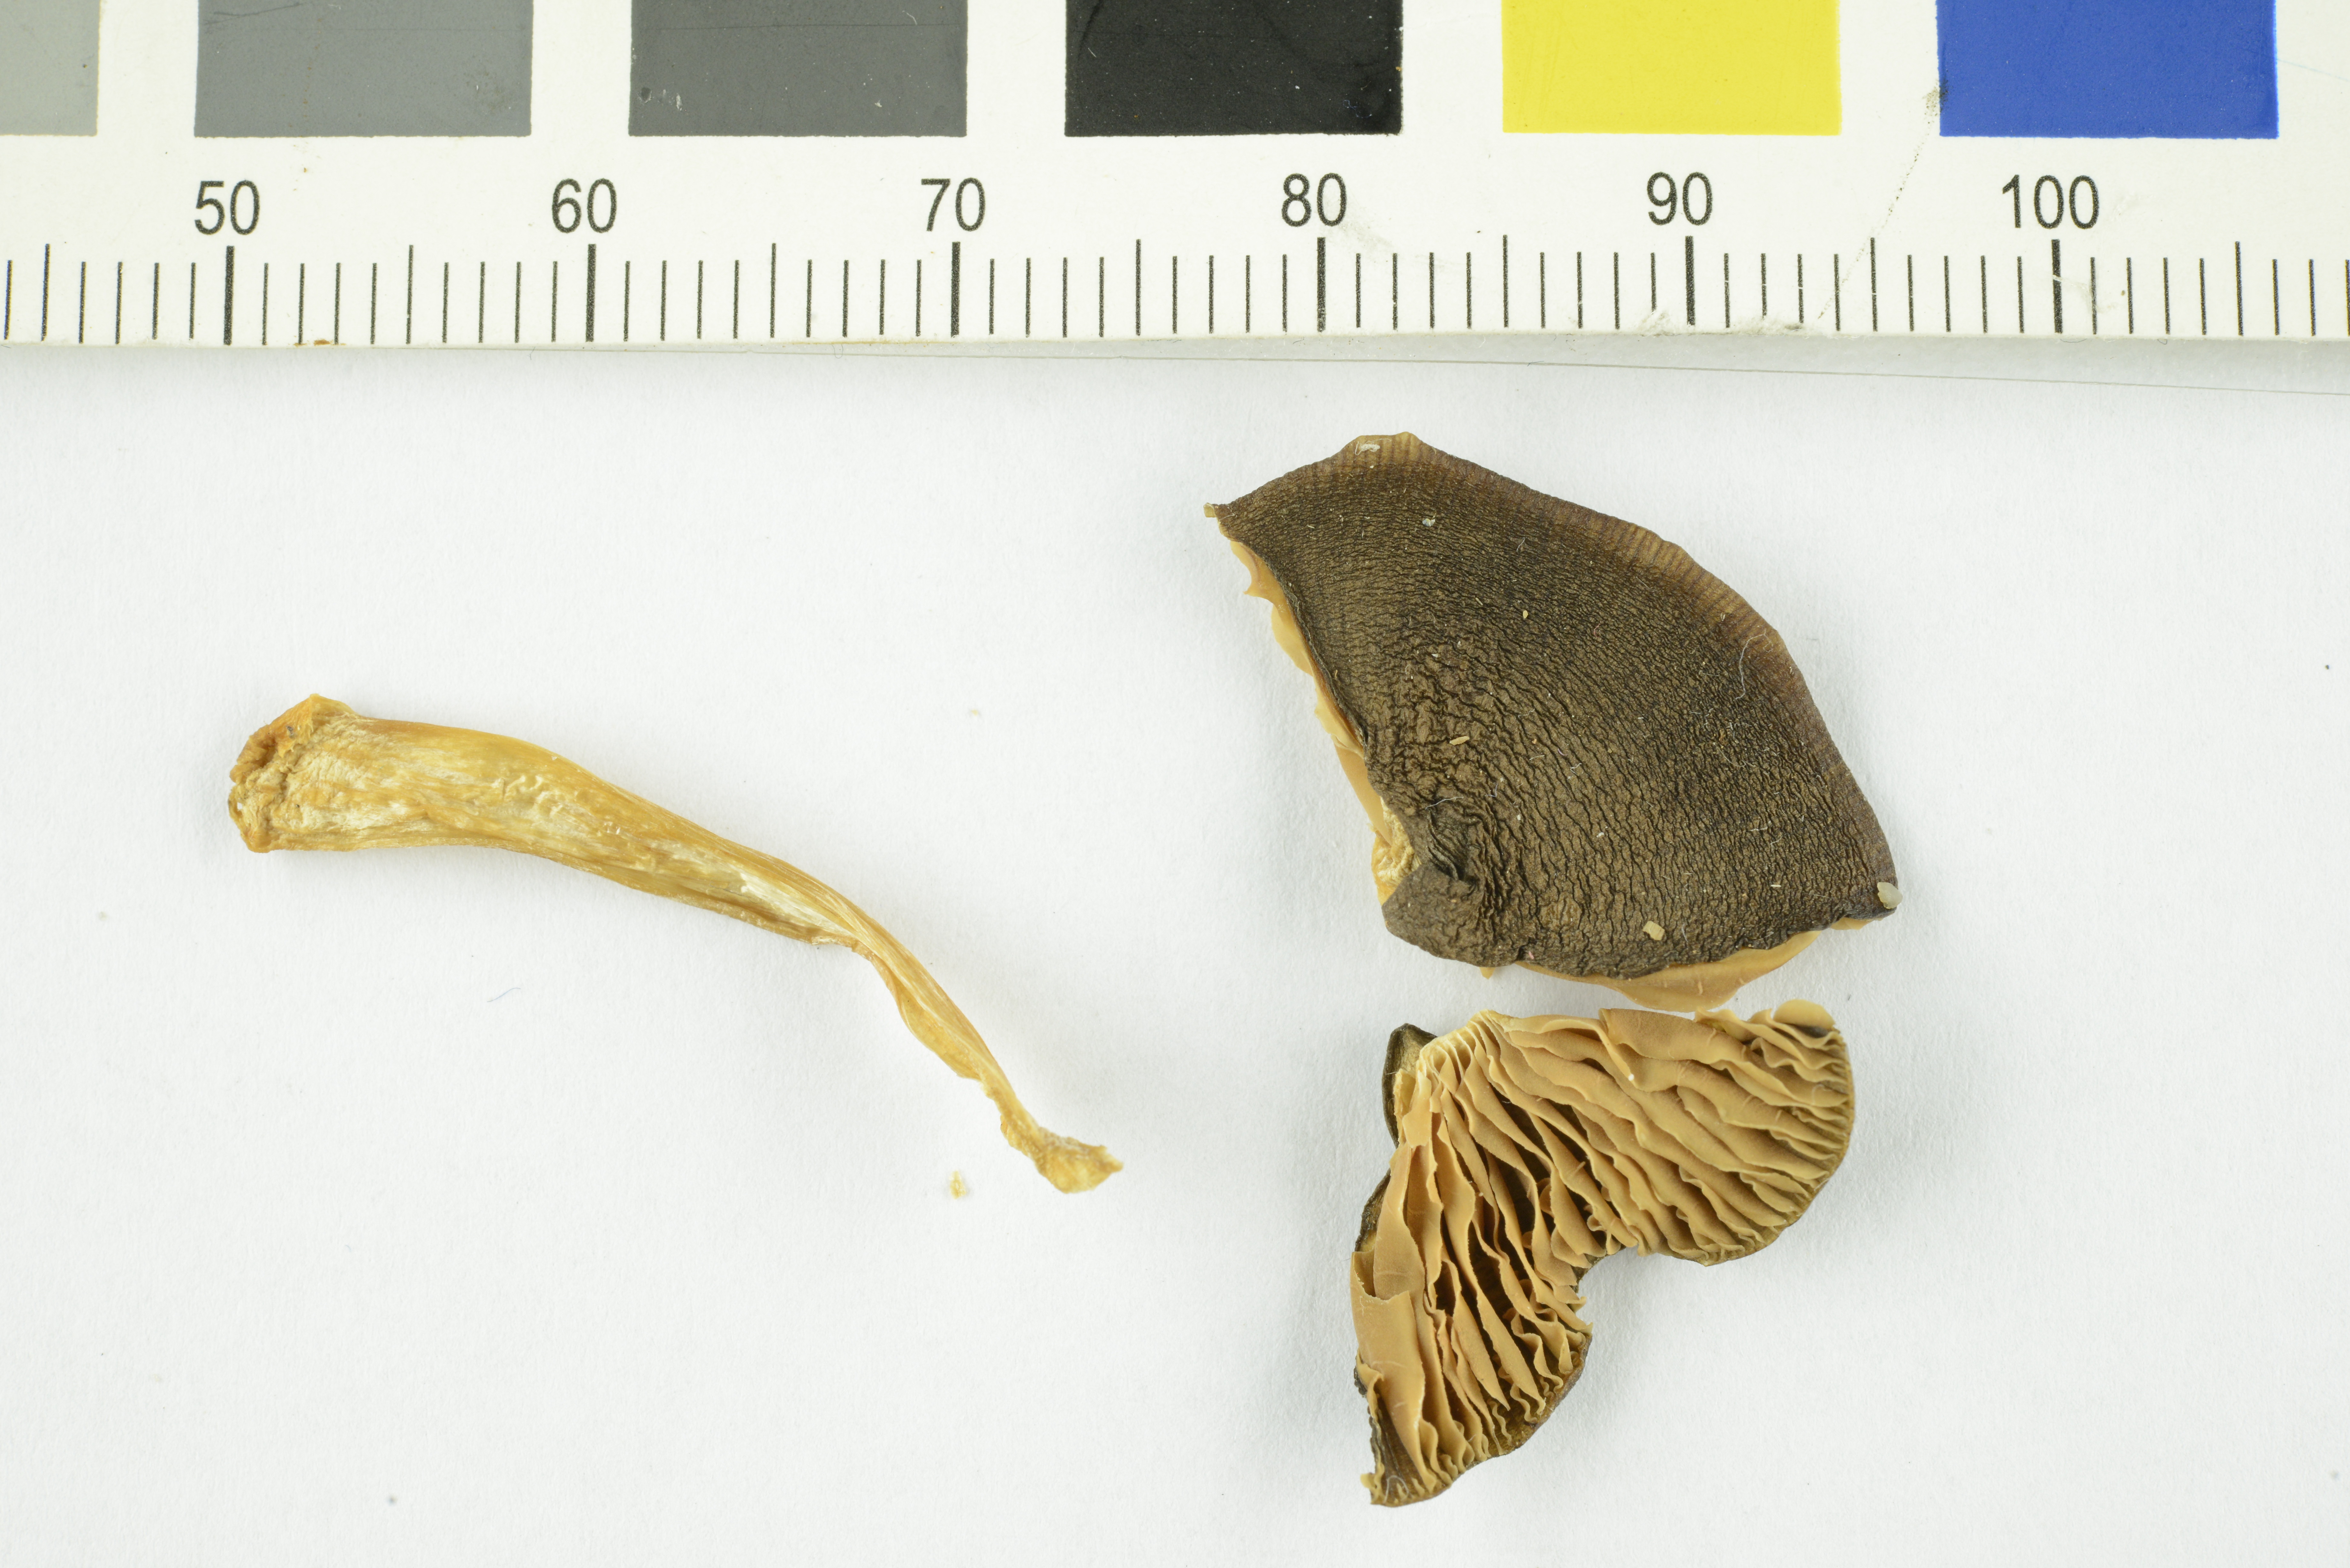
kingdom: Fungi
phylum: Basidiomycota
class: Agaricomycetes
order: Agaricales
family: Entolomataceae
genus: Entoloma
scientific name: Entoloma majaloides
